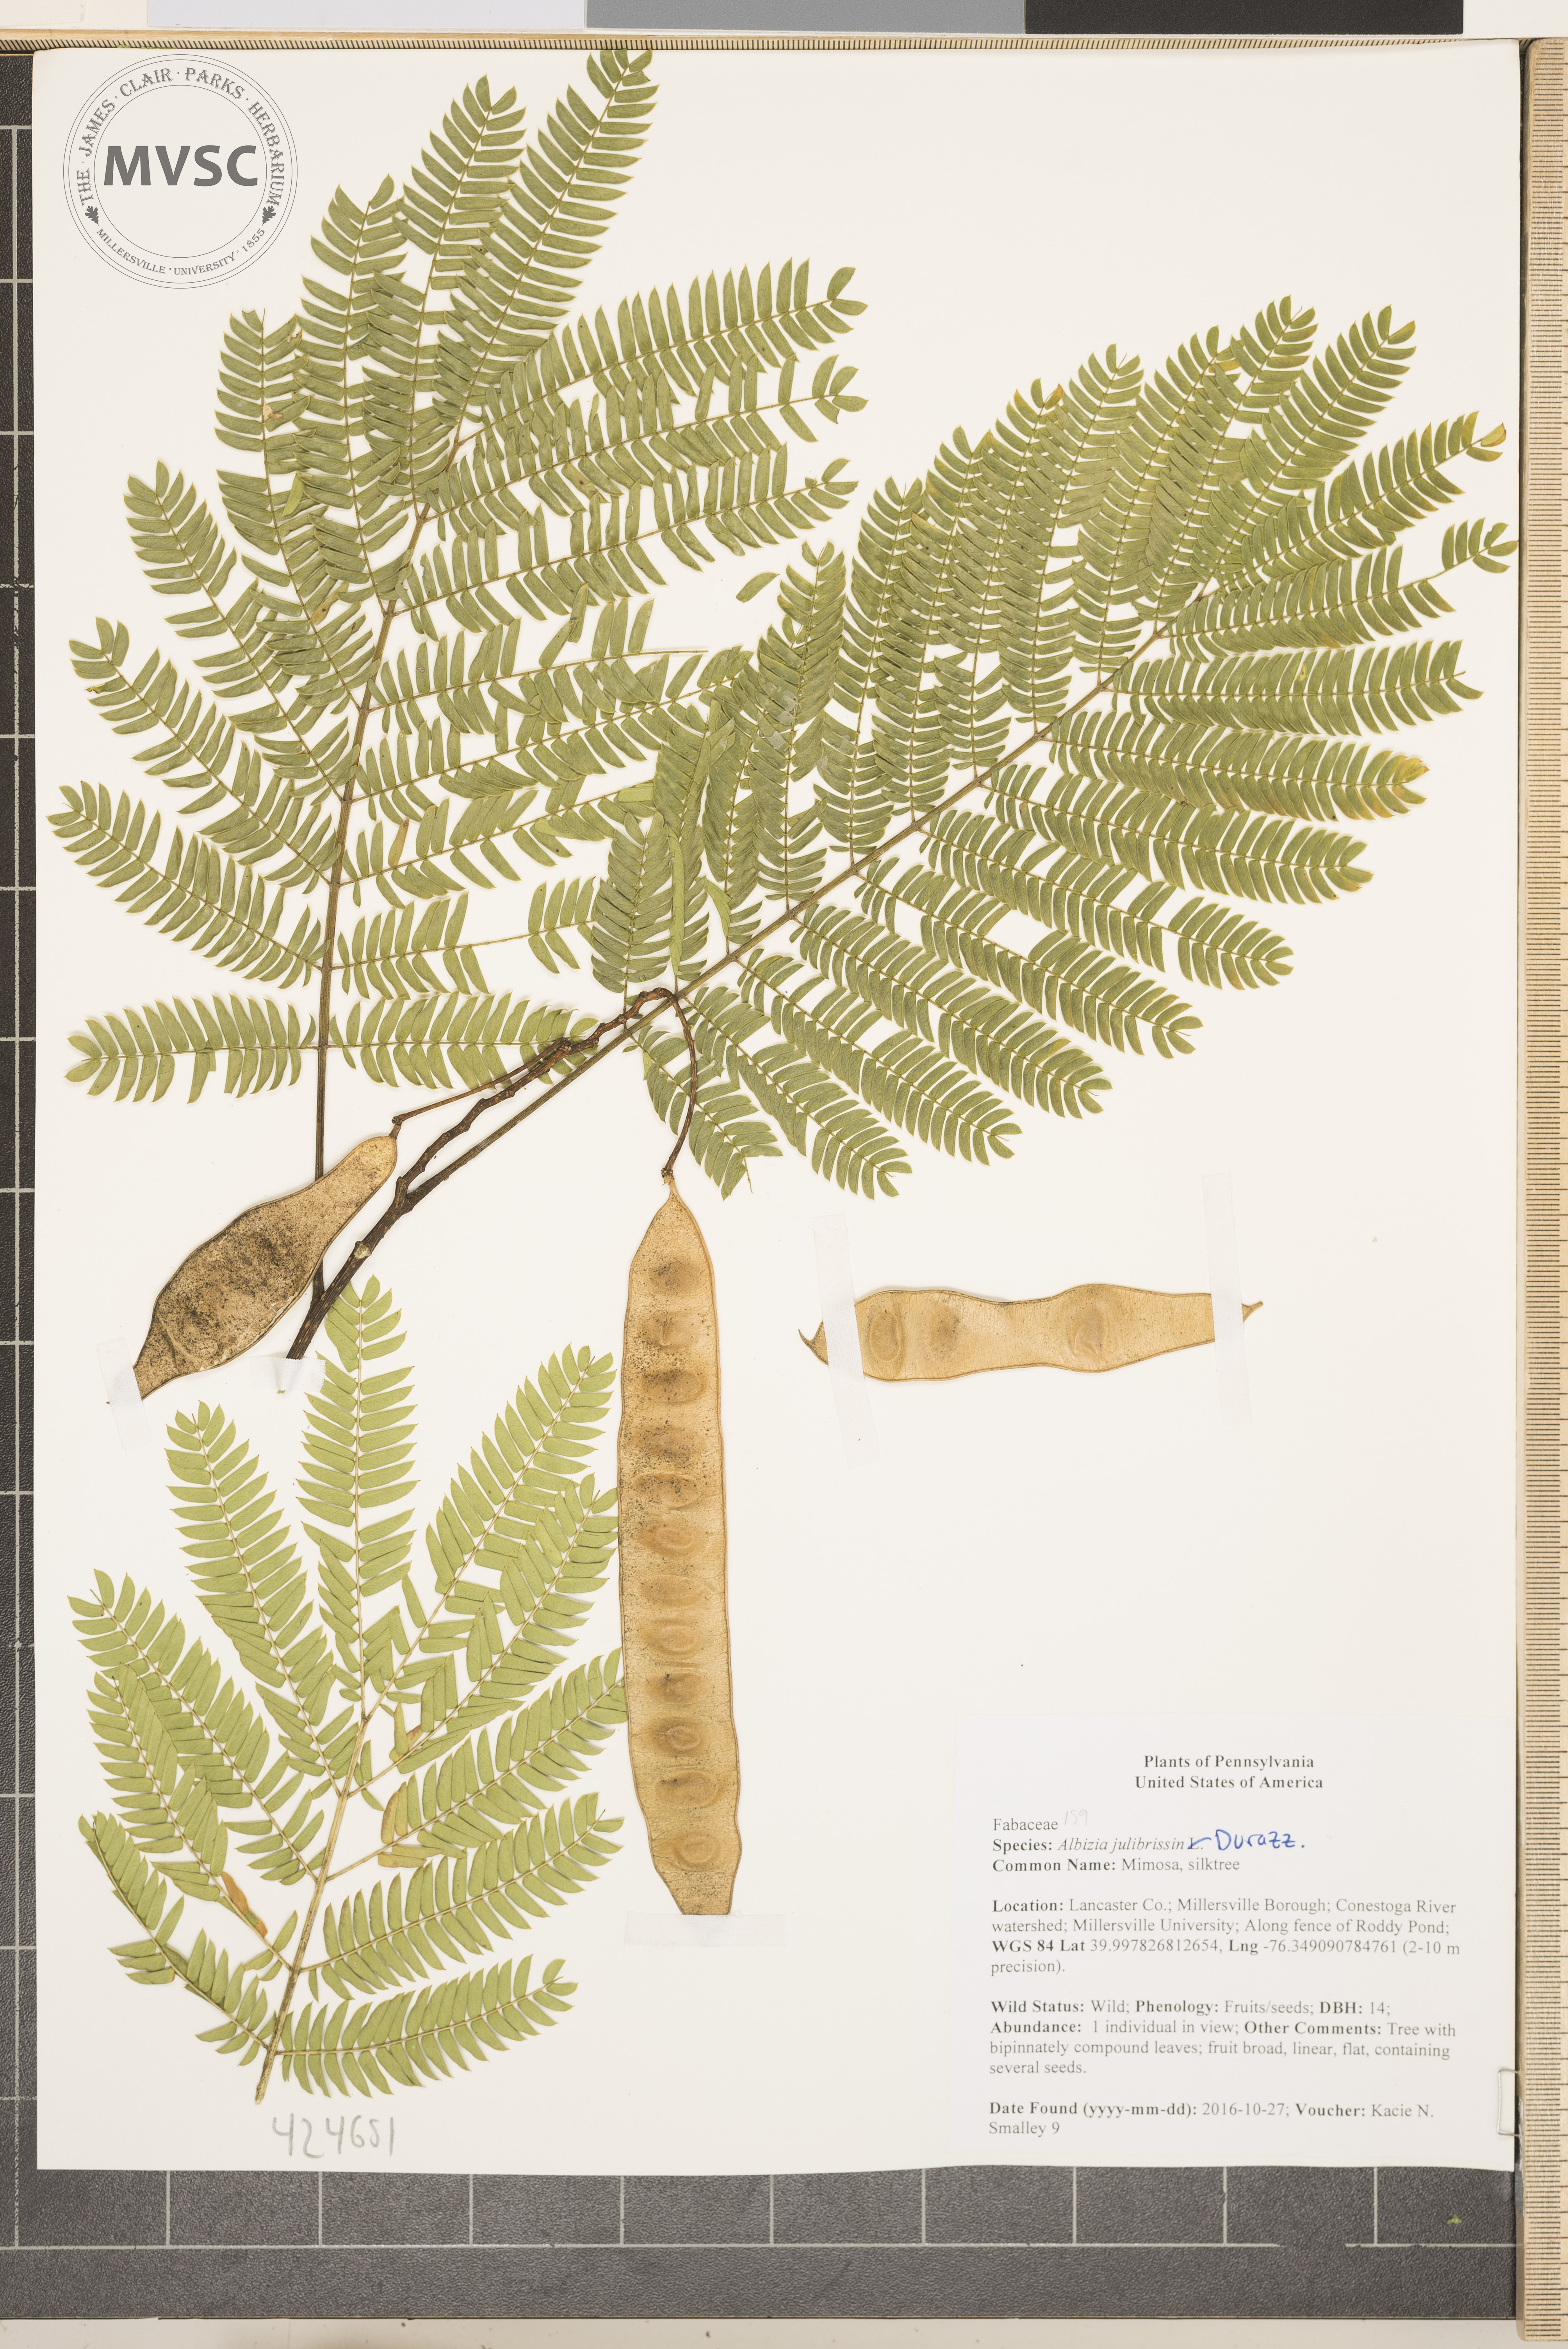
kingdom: Plantae
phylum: Tracheophyta
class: Magnoliopsida
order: Fabales
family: Fabaceae
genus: Albizia
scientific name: Albizia julibrissin
